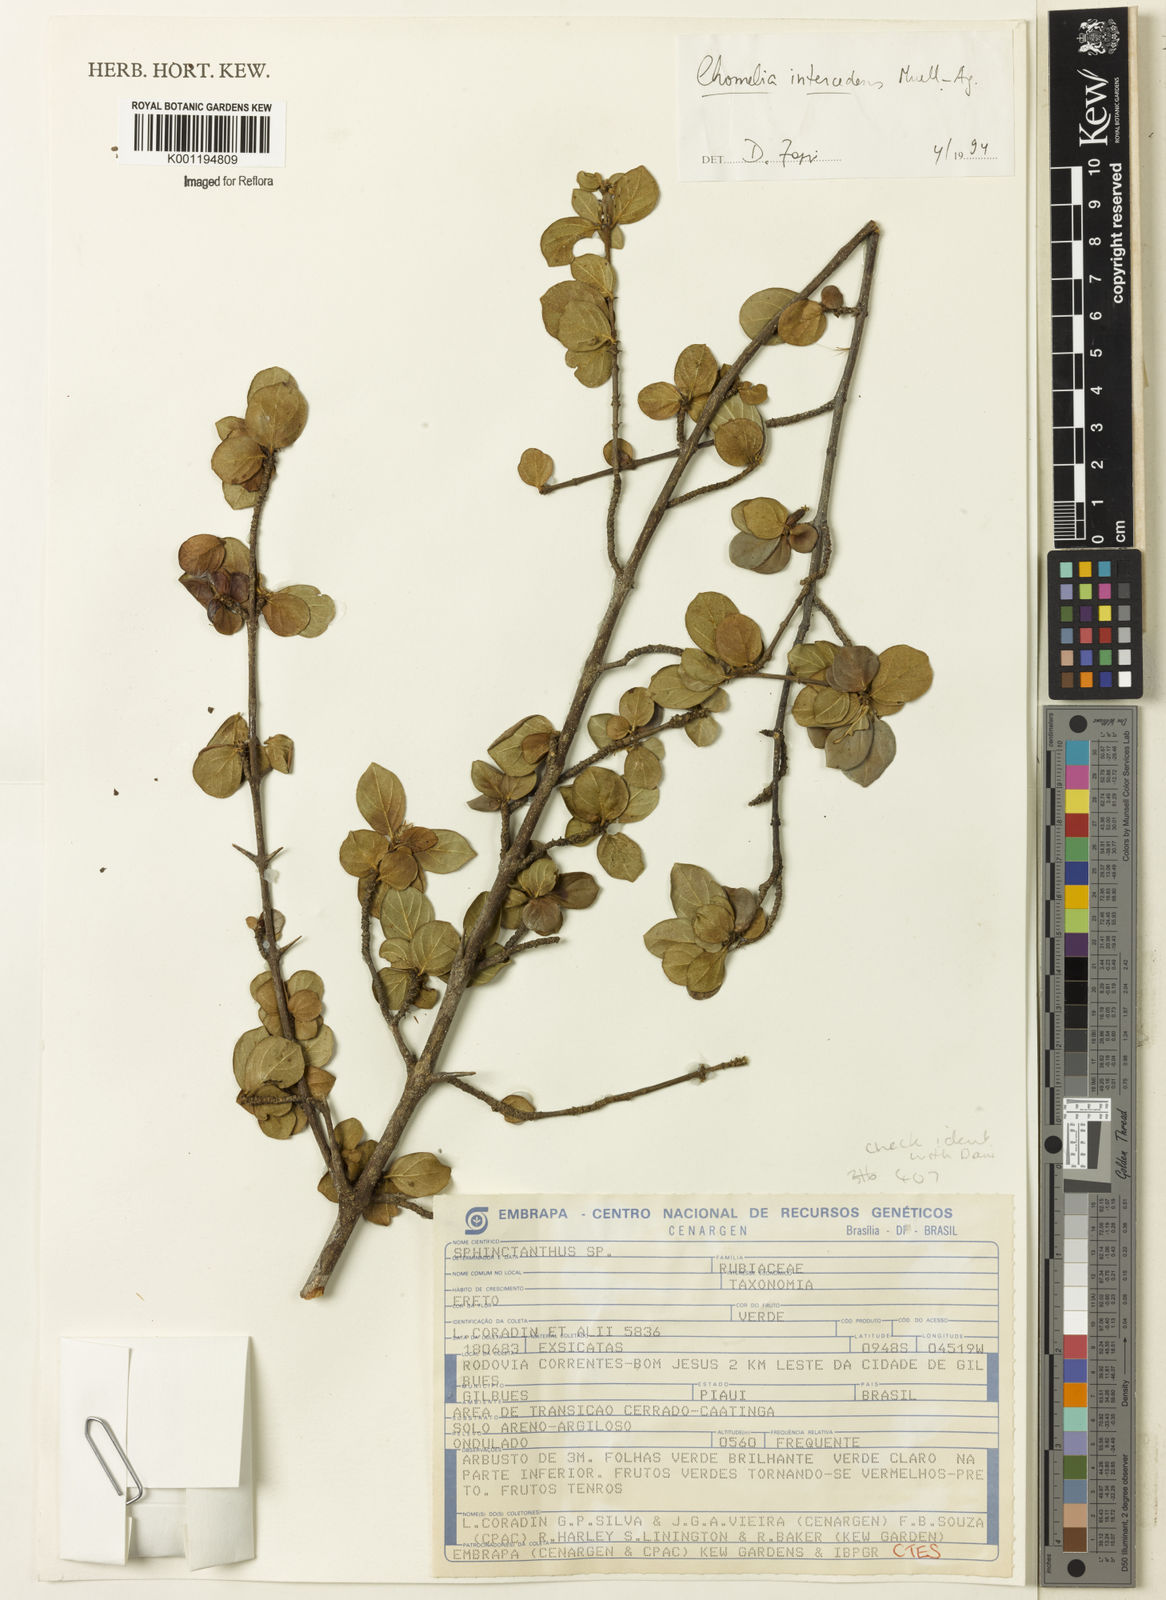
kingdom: Plantae
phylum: Tracheophyta
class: Magnoliopsida
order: Gentianales
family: Rubiaceae
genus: Chomelia
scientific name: Chomelia
